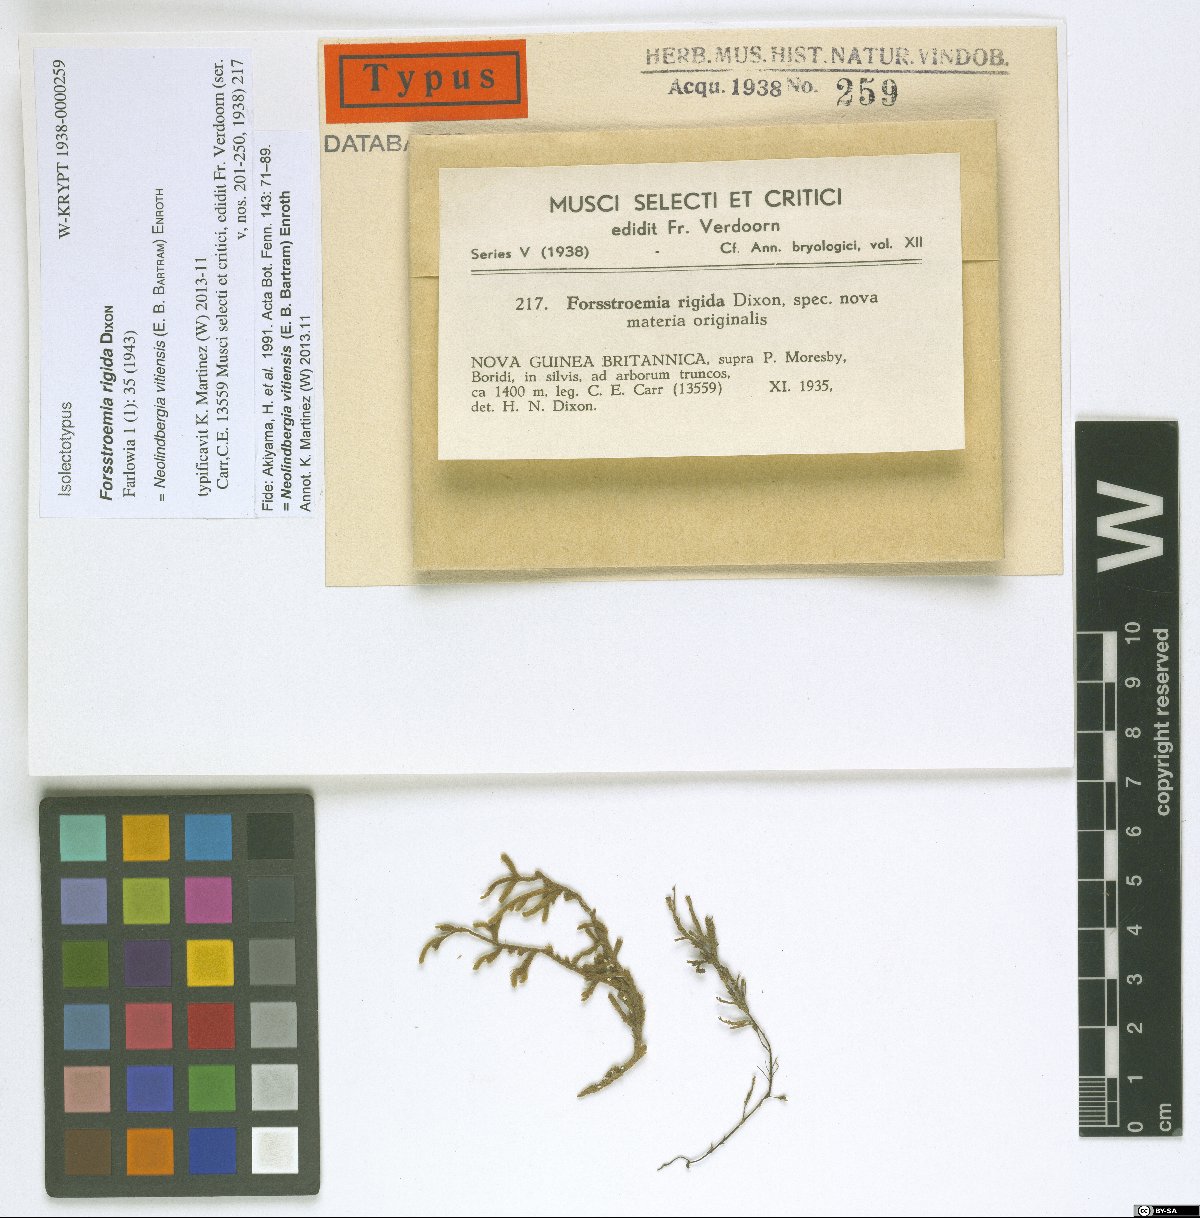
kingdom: Plantae
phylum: Bryophyta
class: Bryopsida
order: Hypnales
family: Pterobryaceae
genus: Neolindbergia
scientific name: Neolindbergia vitiensis
